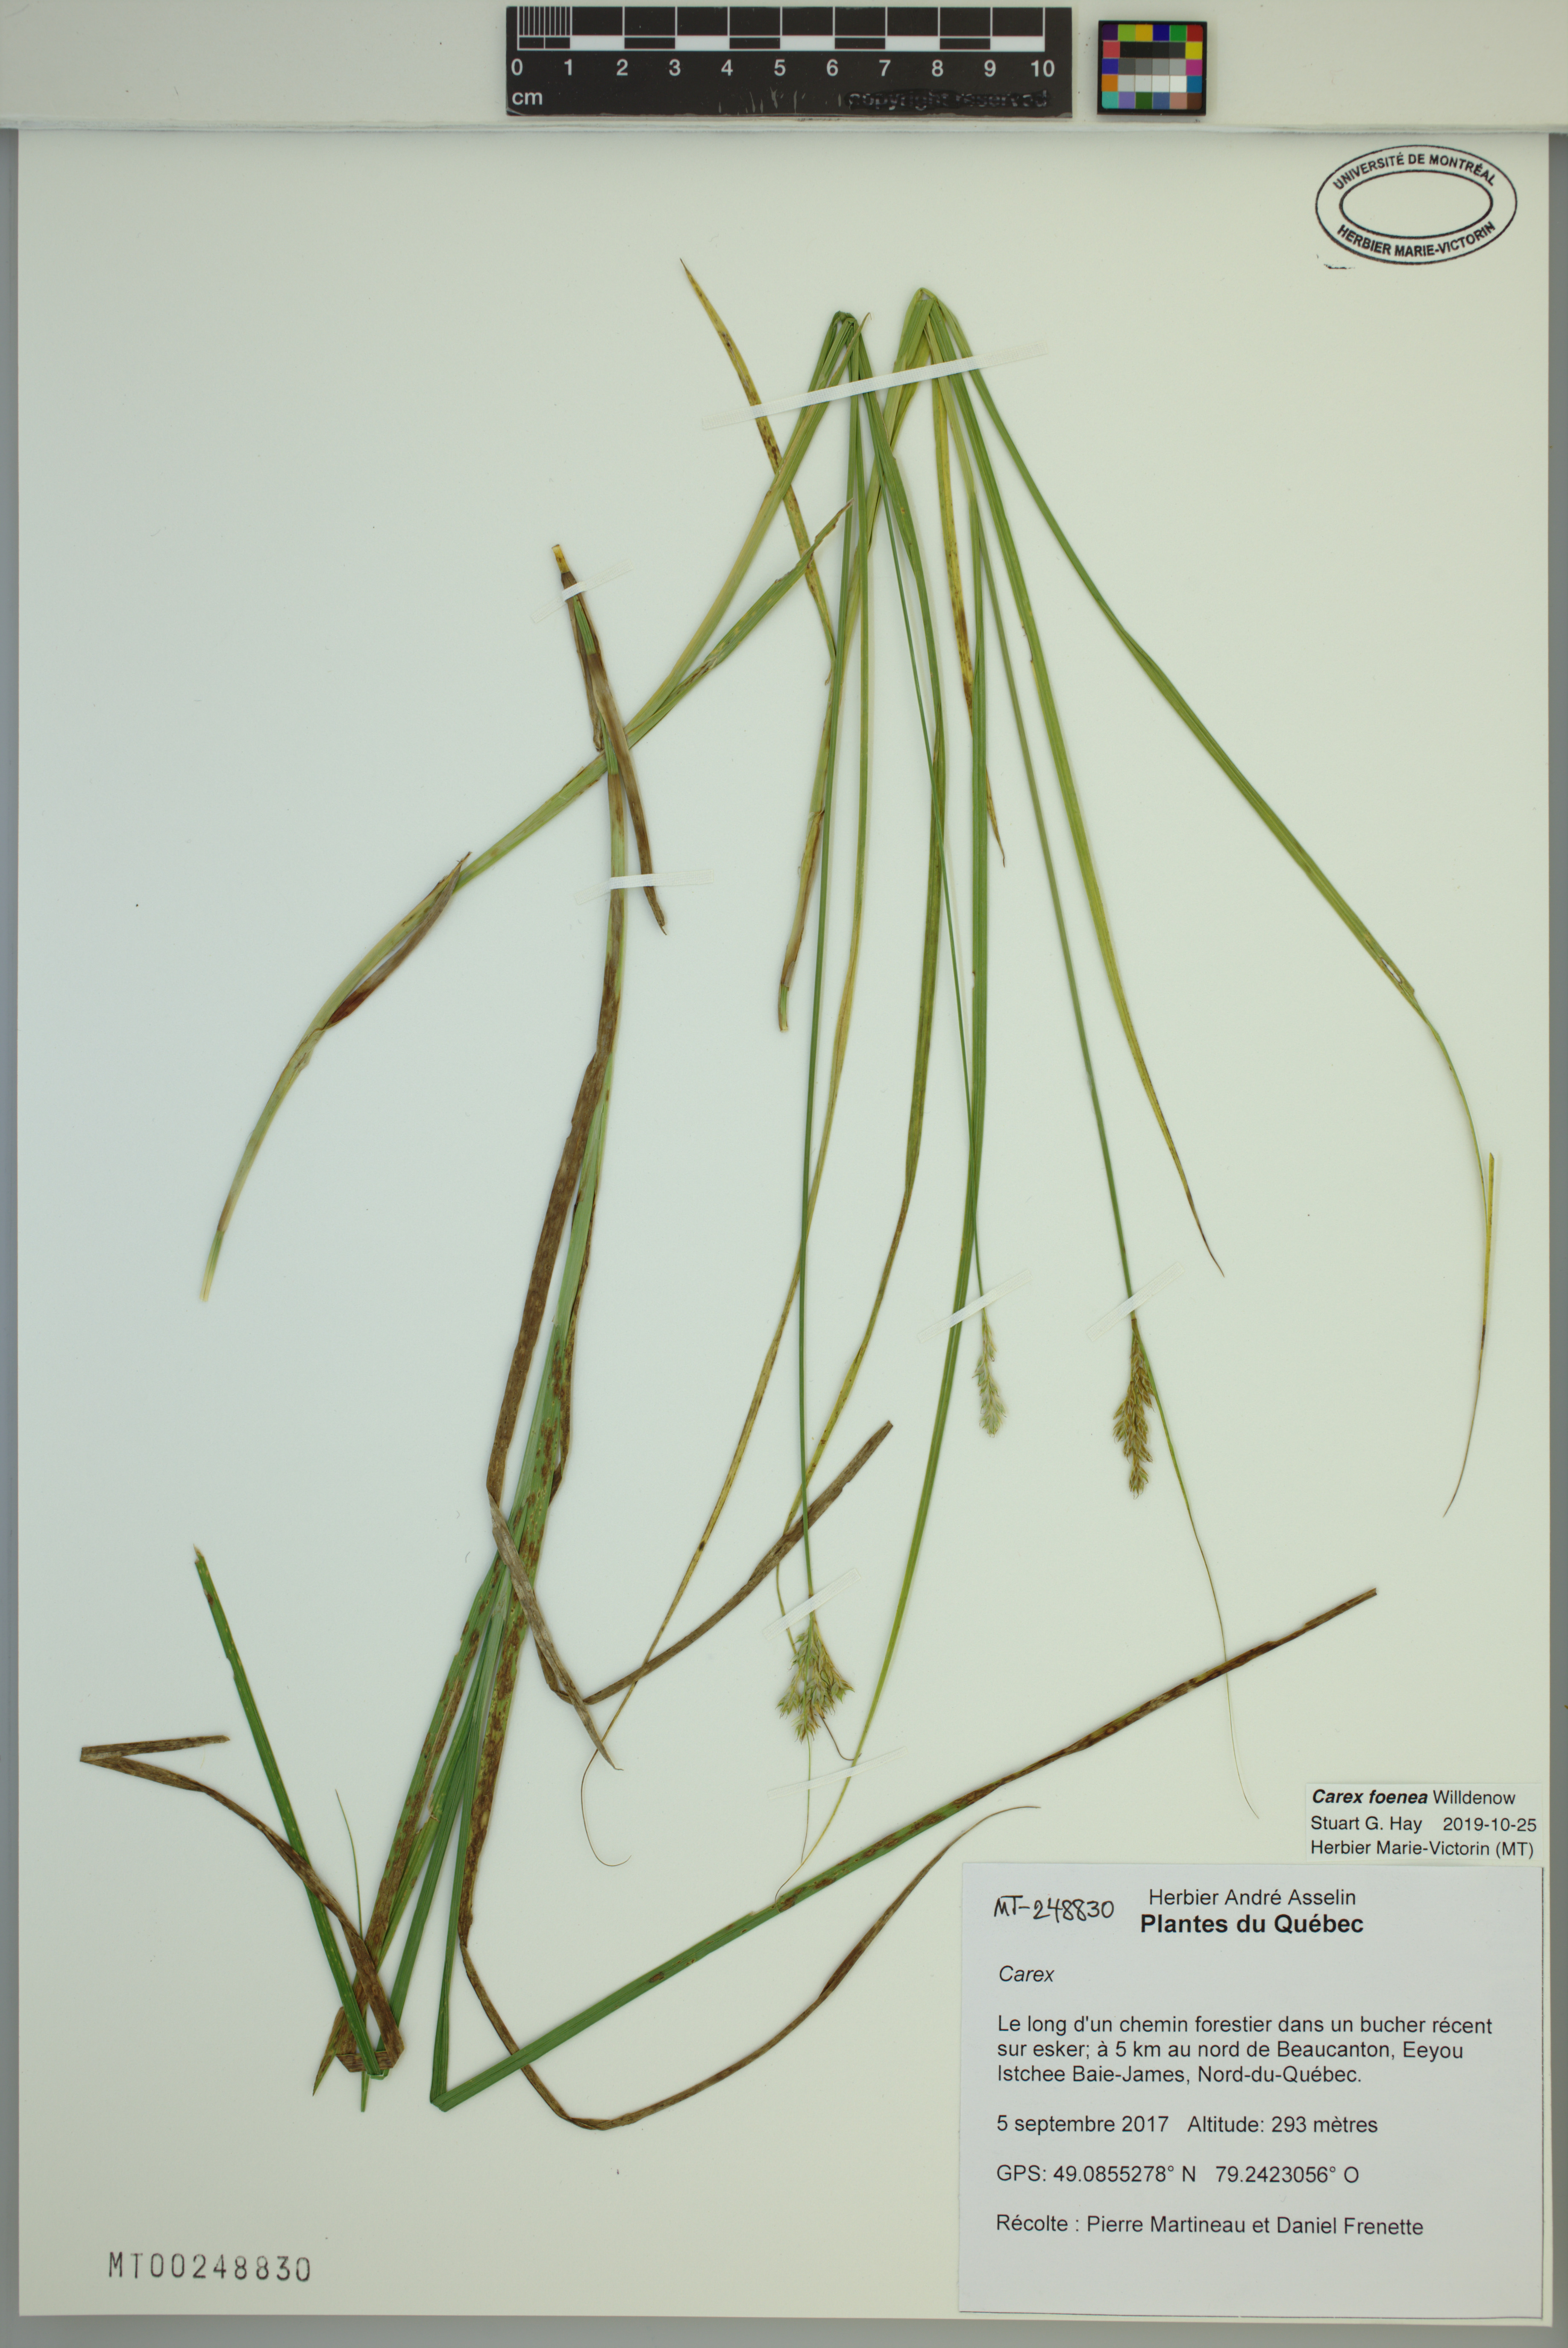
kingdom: Plantae
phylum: Tracheophyta
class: Liliopsida
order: Poales
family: Cyperaceae
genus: Carex
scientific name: Carex foenea
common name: Bronze sedge
